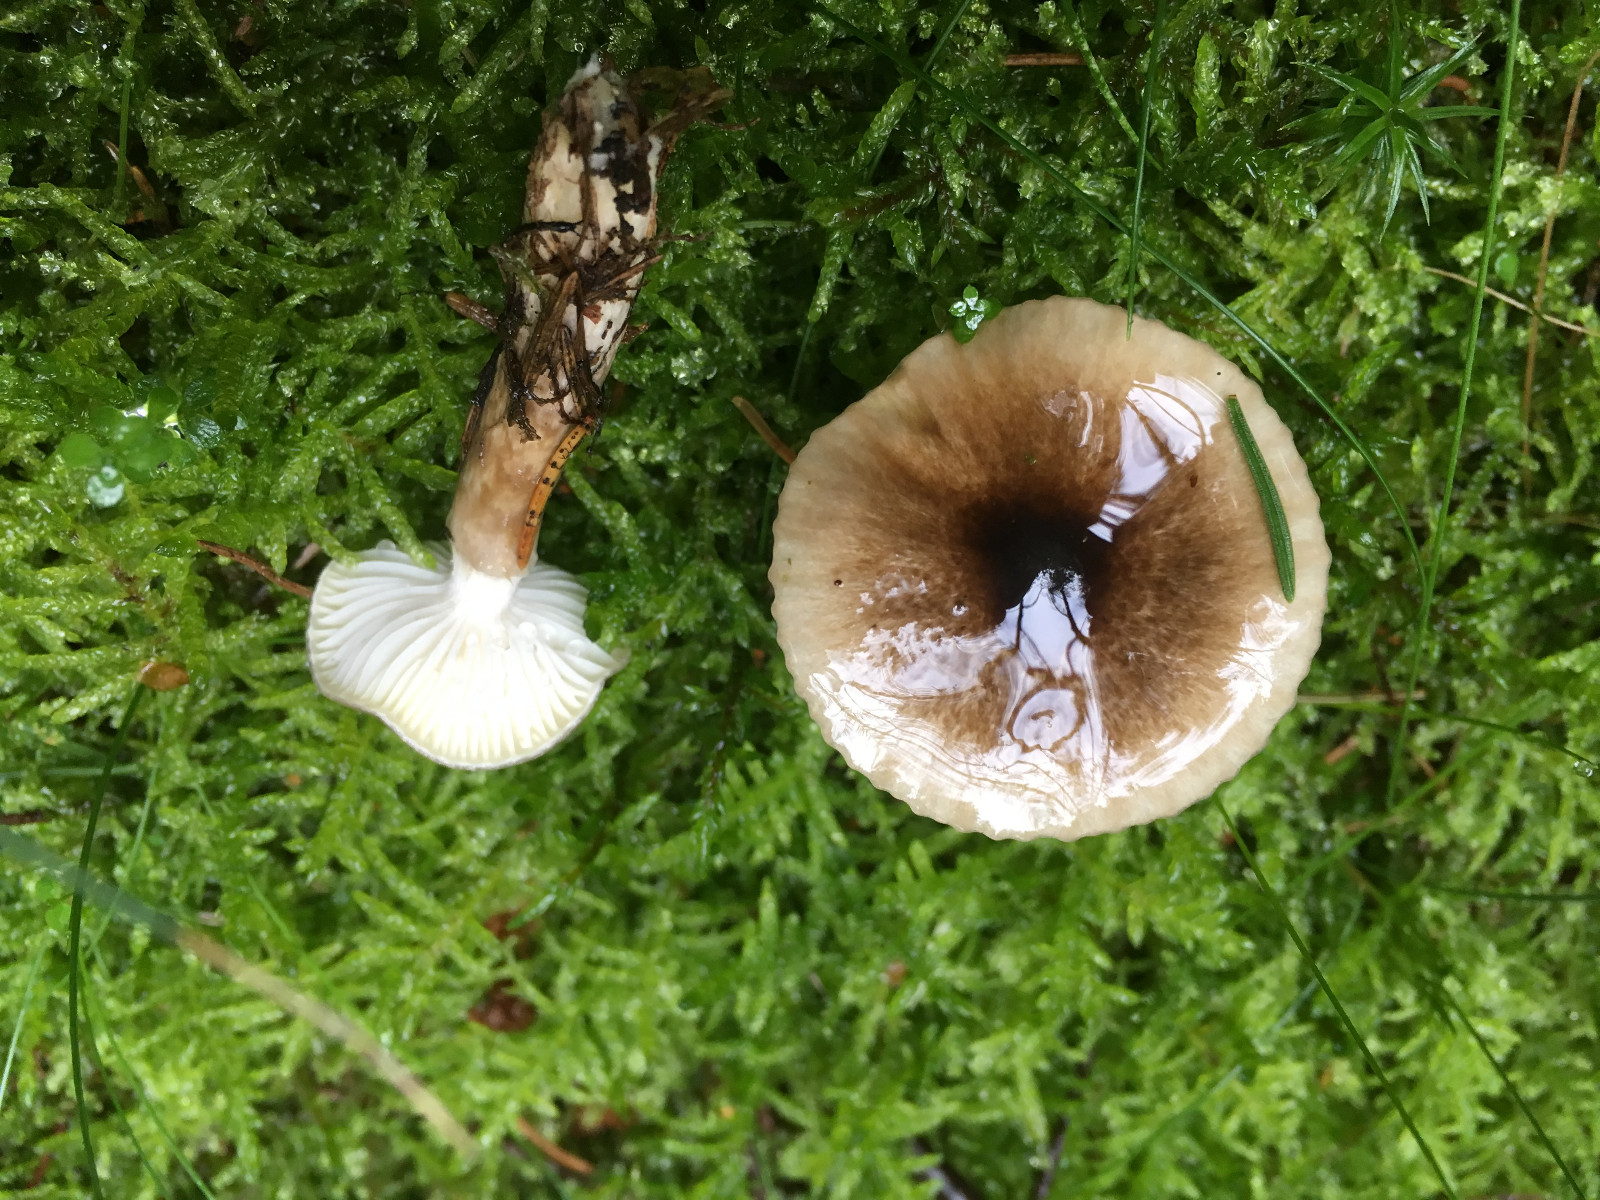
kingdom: Fungi
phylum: Basidiomycota
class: Agaricomycetes
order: Agaricales
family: Hygrophoraceae
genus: Hygrophorus
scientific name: Hygrophorus olivaceoalbus
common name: hvidbrun sneglehat
